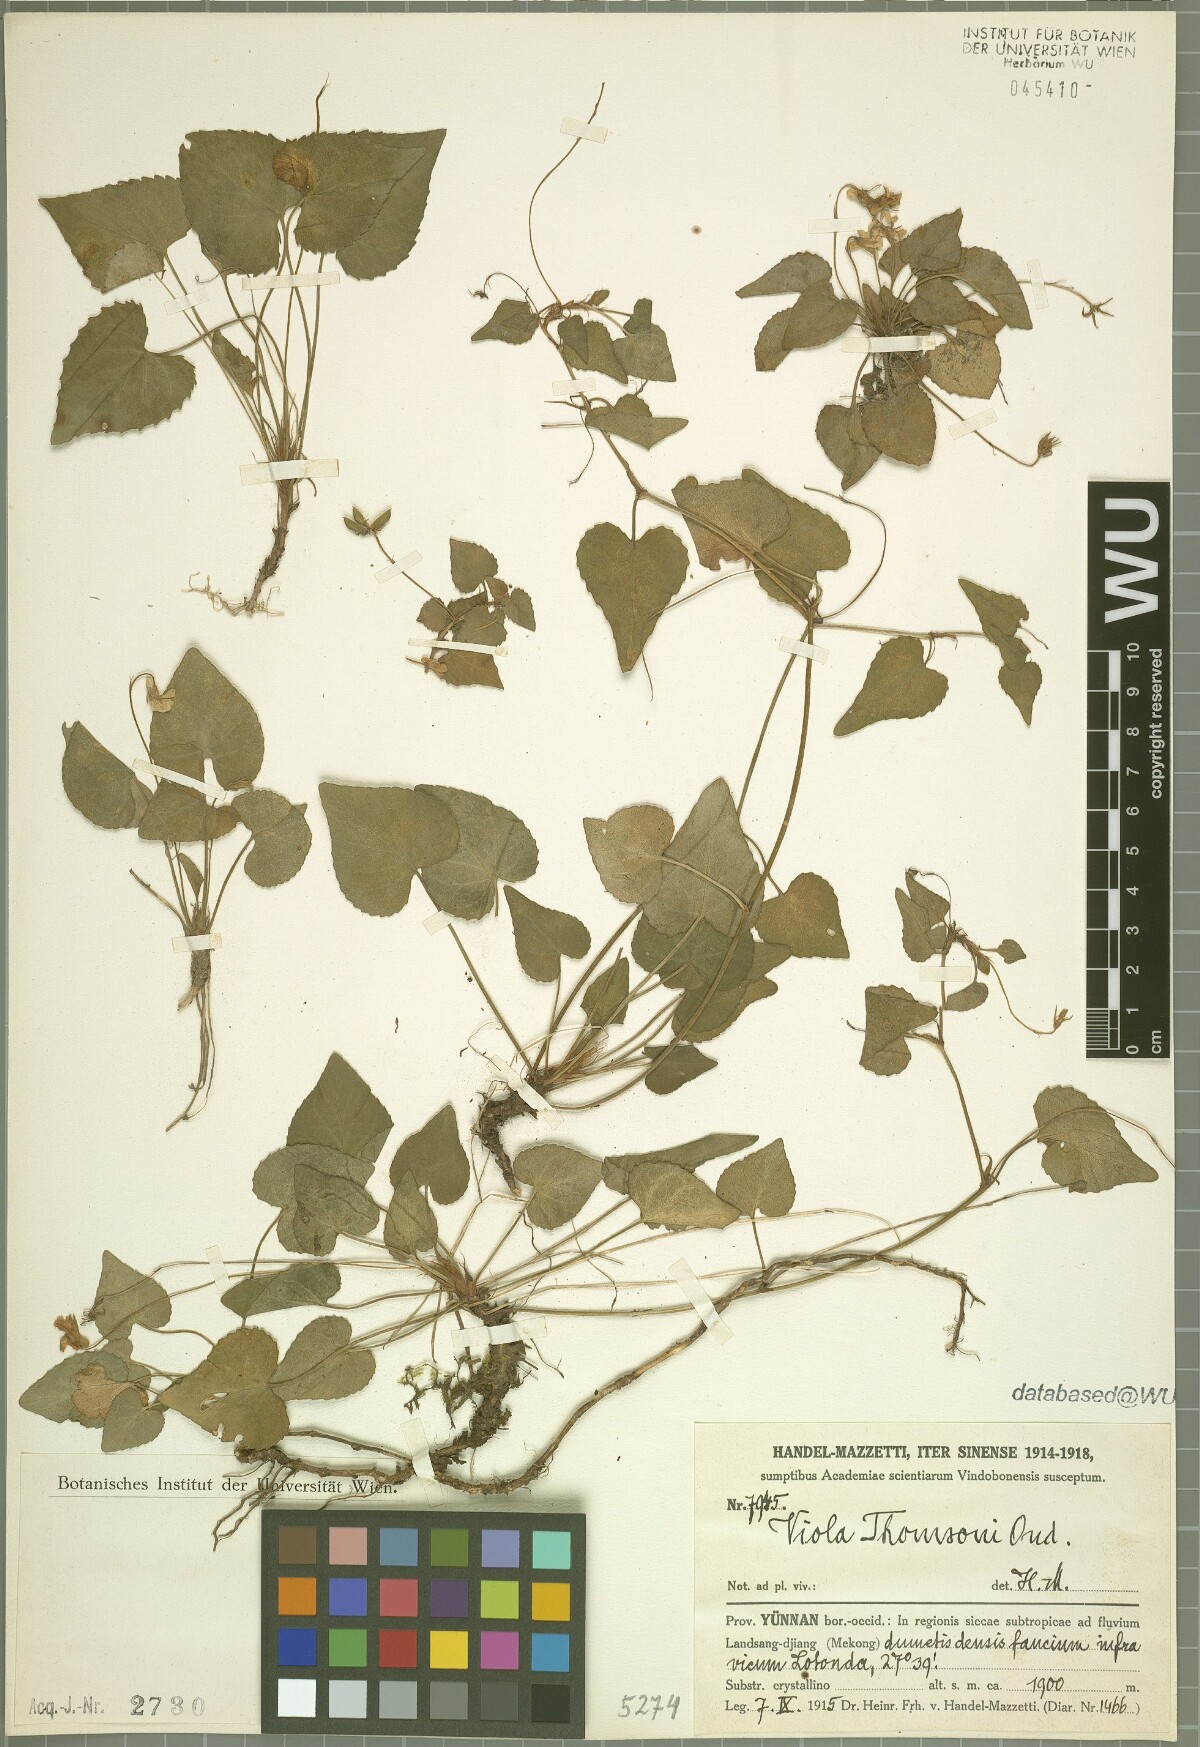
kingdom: Plantae
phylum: Tracheophyta
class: Magnoliopsida
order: Malpighiales
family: Violaceae
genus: Viola
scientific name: Viola thomsonii
